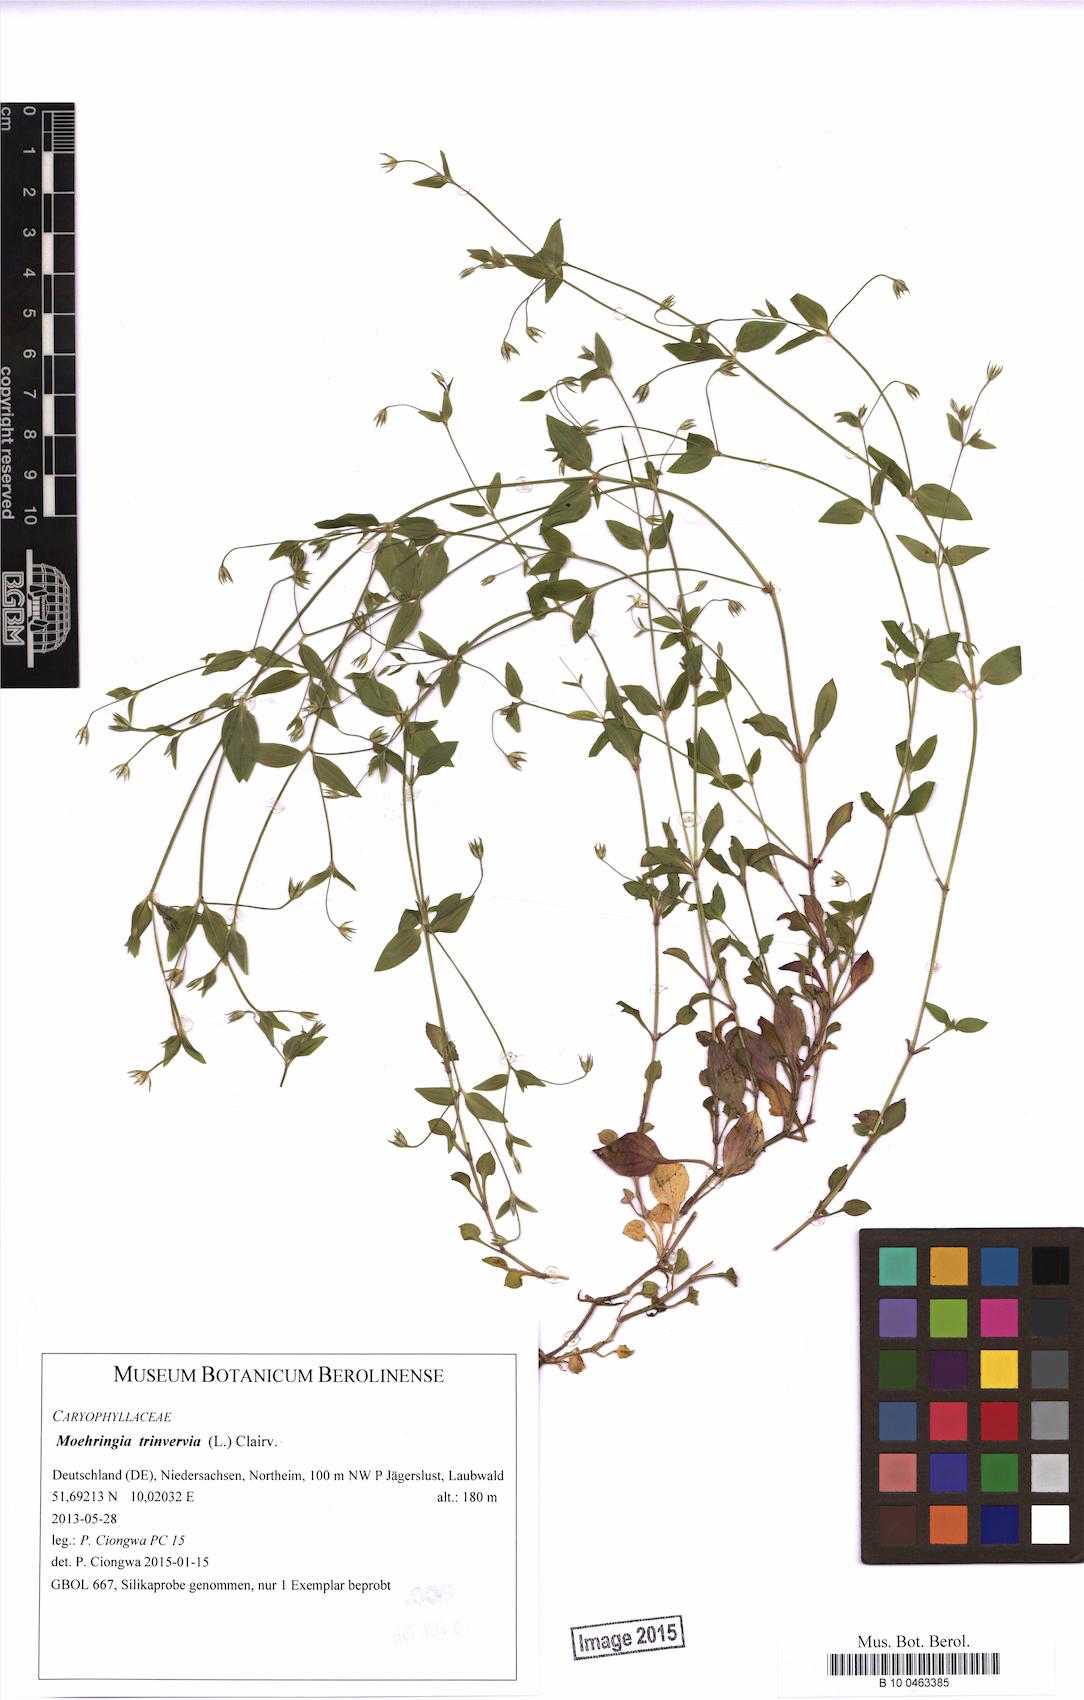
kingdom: Plantae
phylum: Tracheophyta
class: Magnoliopsida
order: Caryophyllales
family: Caryophyllaceae
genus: Moehringia
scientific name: Moehringia trinervia
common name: Three-nerved sandwort
